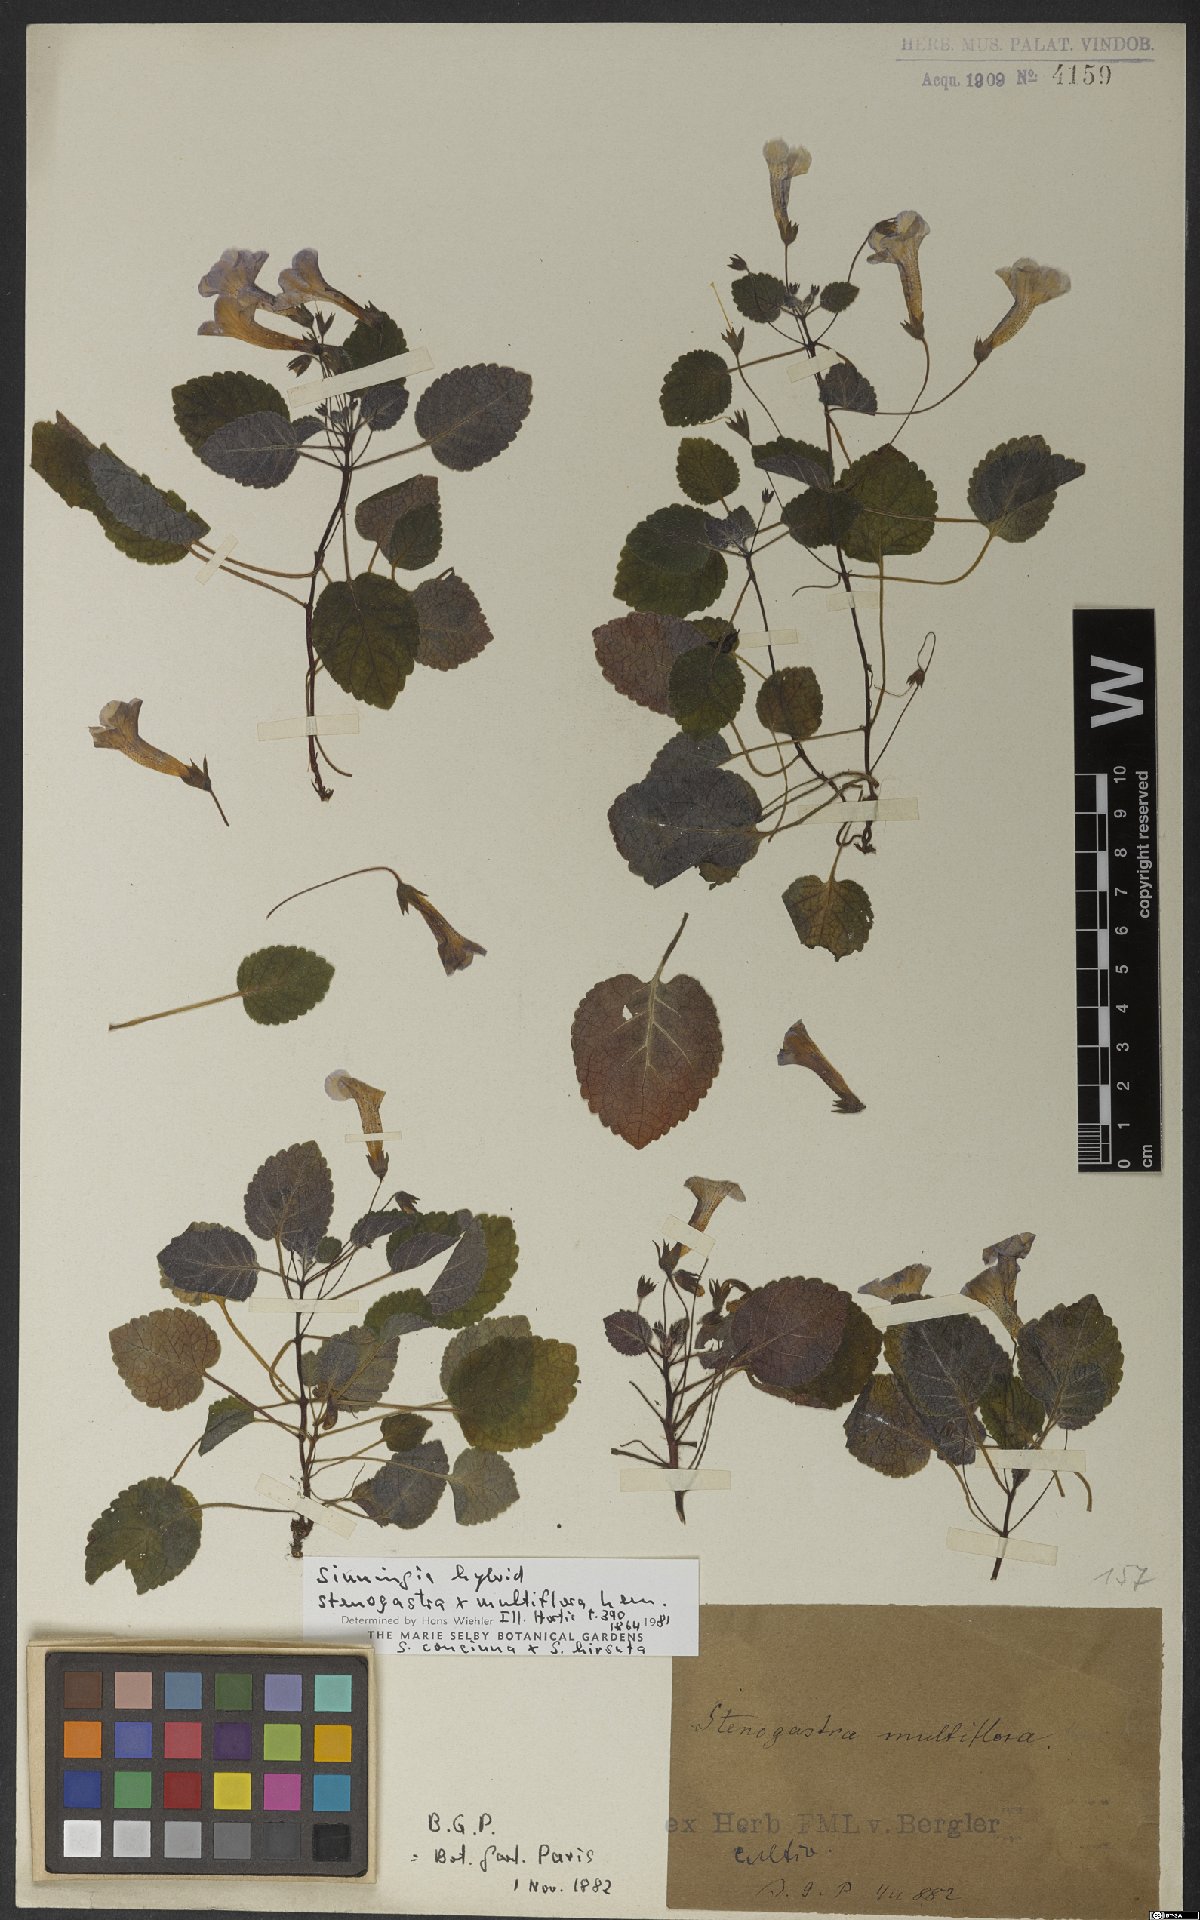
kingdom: Plantae
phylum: Tracheophyta
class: Magnoliopsida
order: Lamiales
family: Gesneriaceae
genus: Sinningia
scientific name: Sinningia
